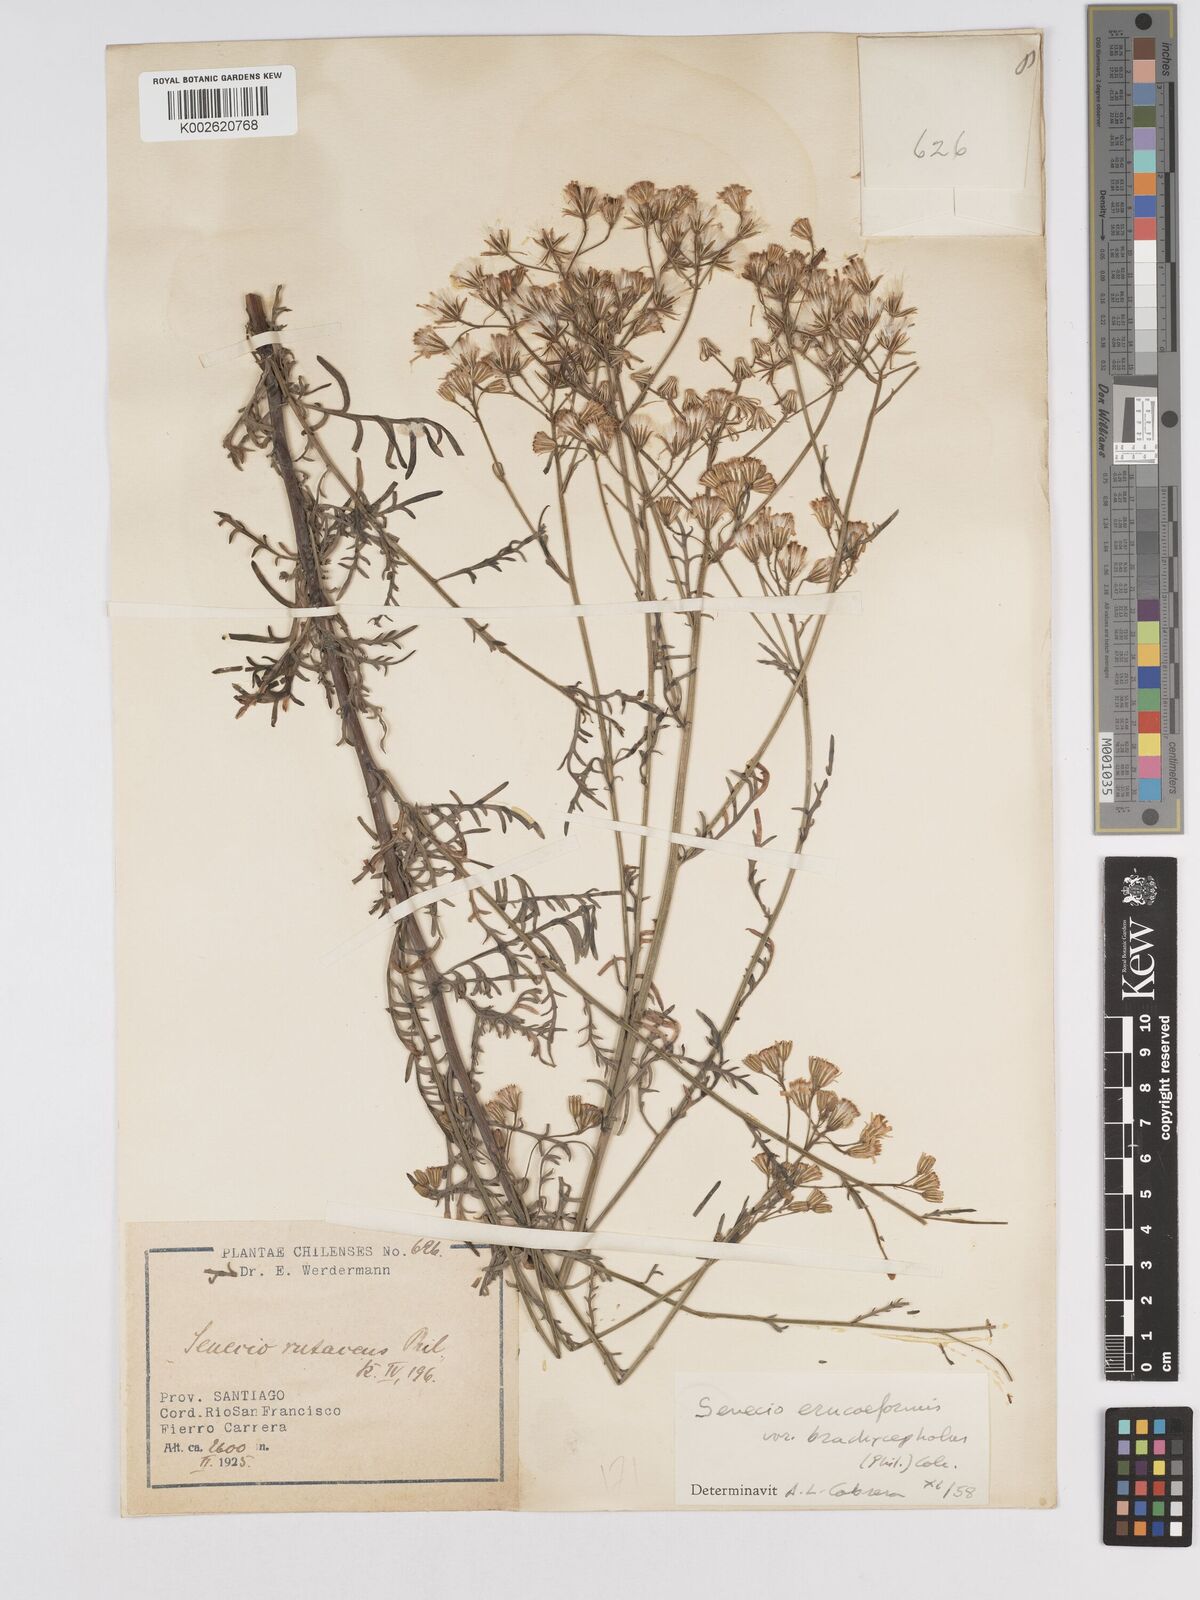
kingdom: Plantae
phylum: Tracheophyta
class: Magnoliopsida
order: Asterales
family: Asteraceae
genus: Senecio
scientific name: Senecio eruciformis
